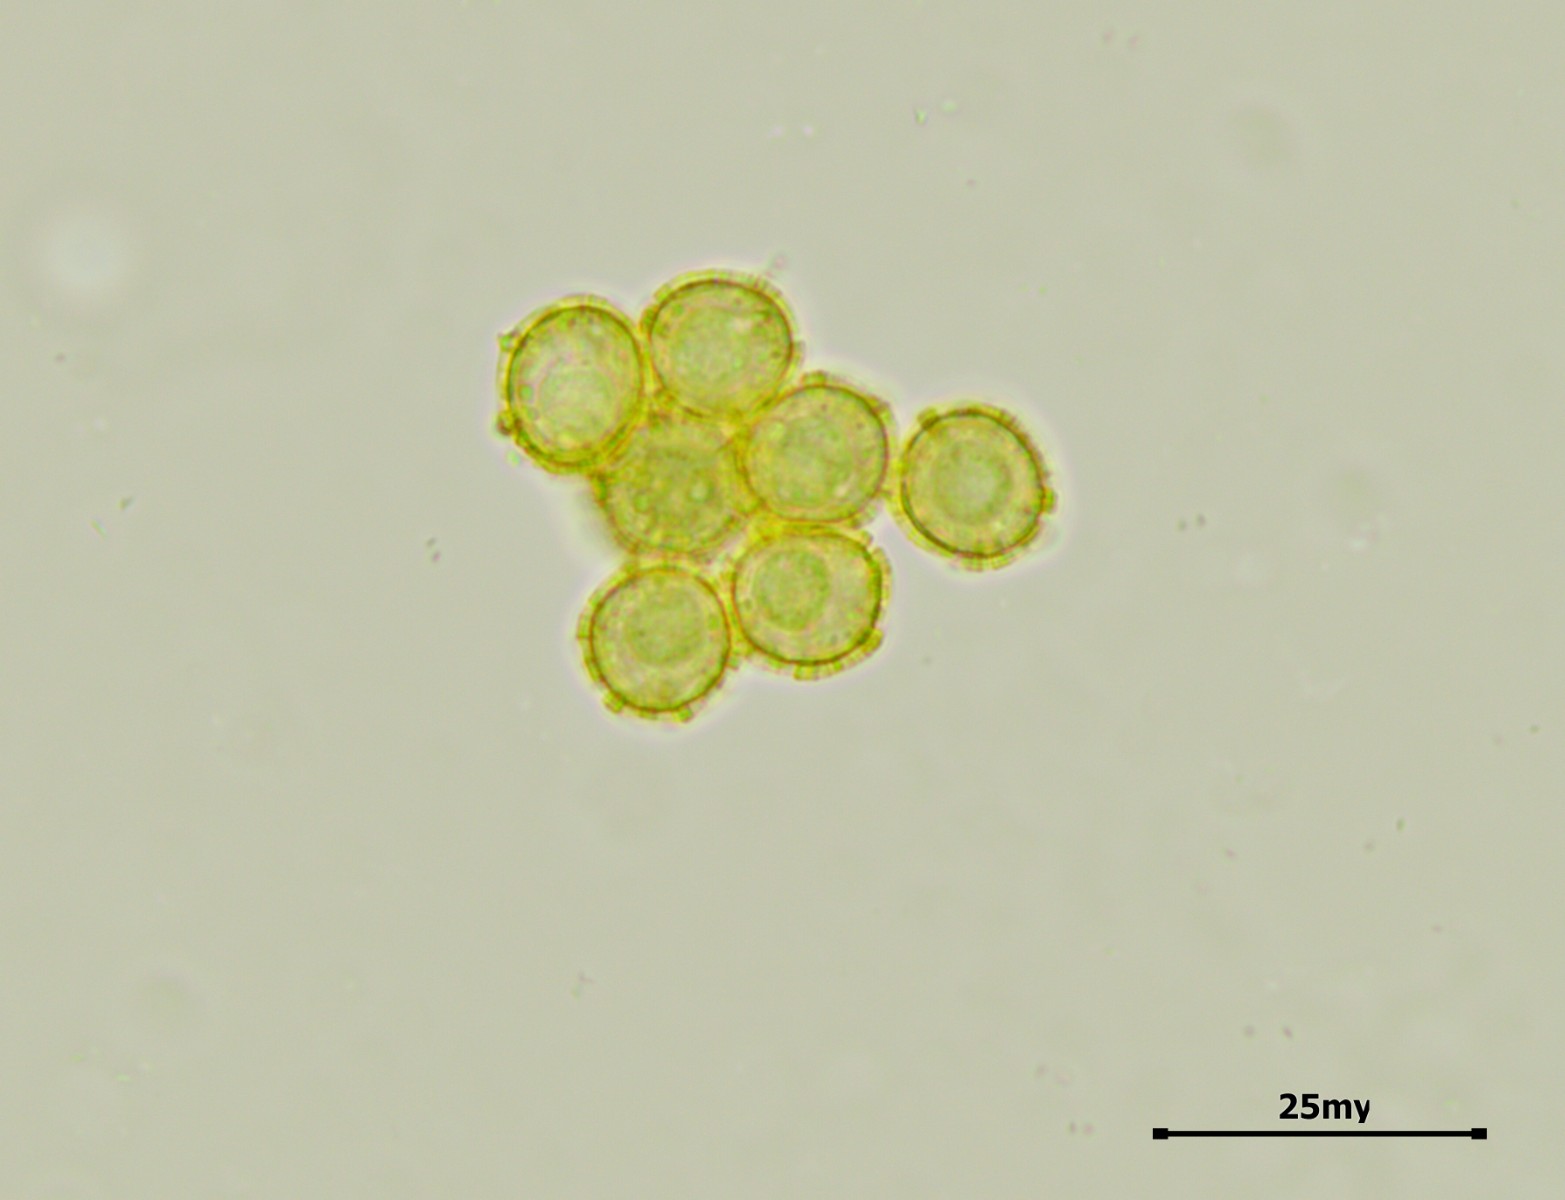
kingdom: Protozoa
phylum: Mycetozoa
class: Myxomycetes
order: Trichiales
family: Trichiaceae
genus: Oligonema
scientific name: Oligonema persimile
